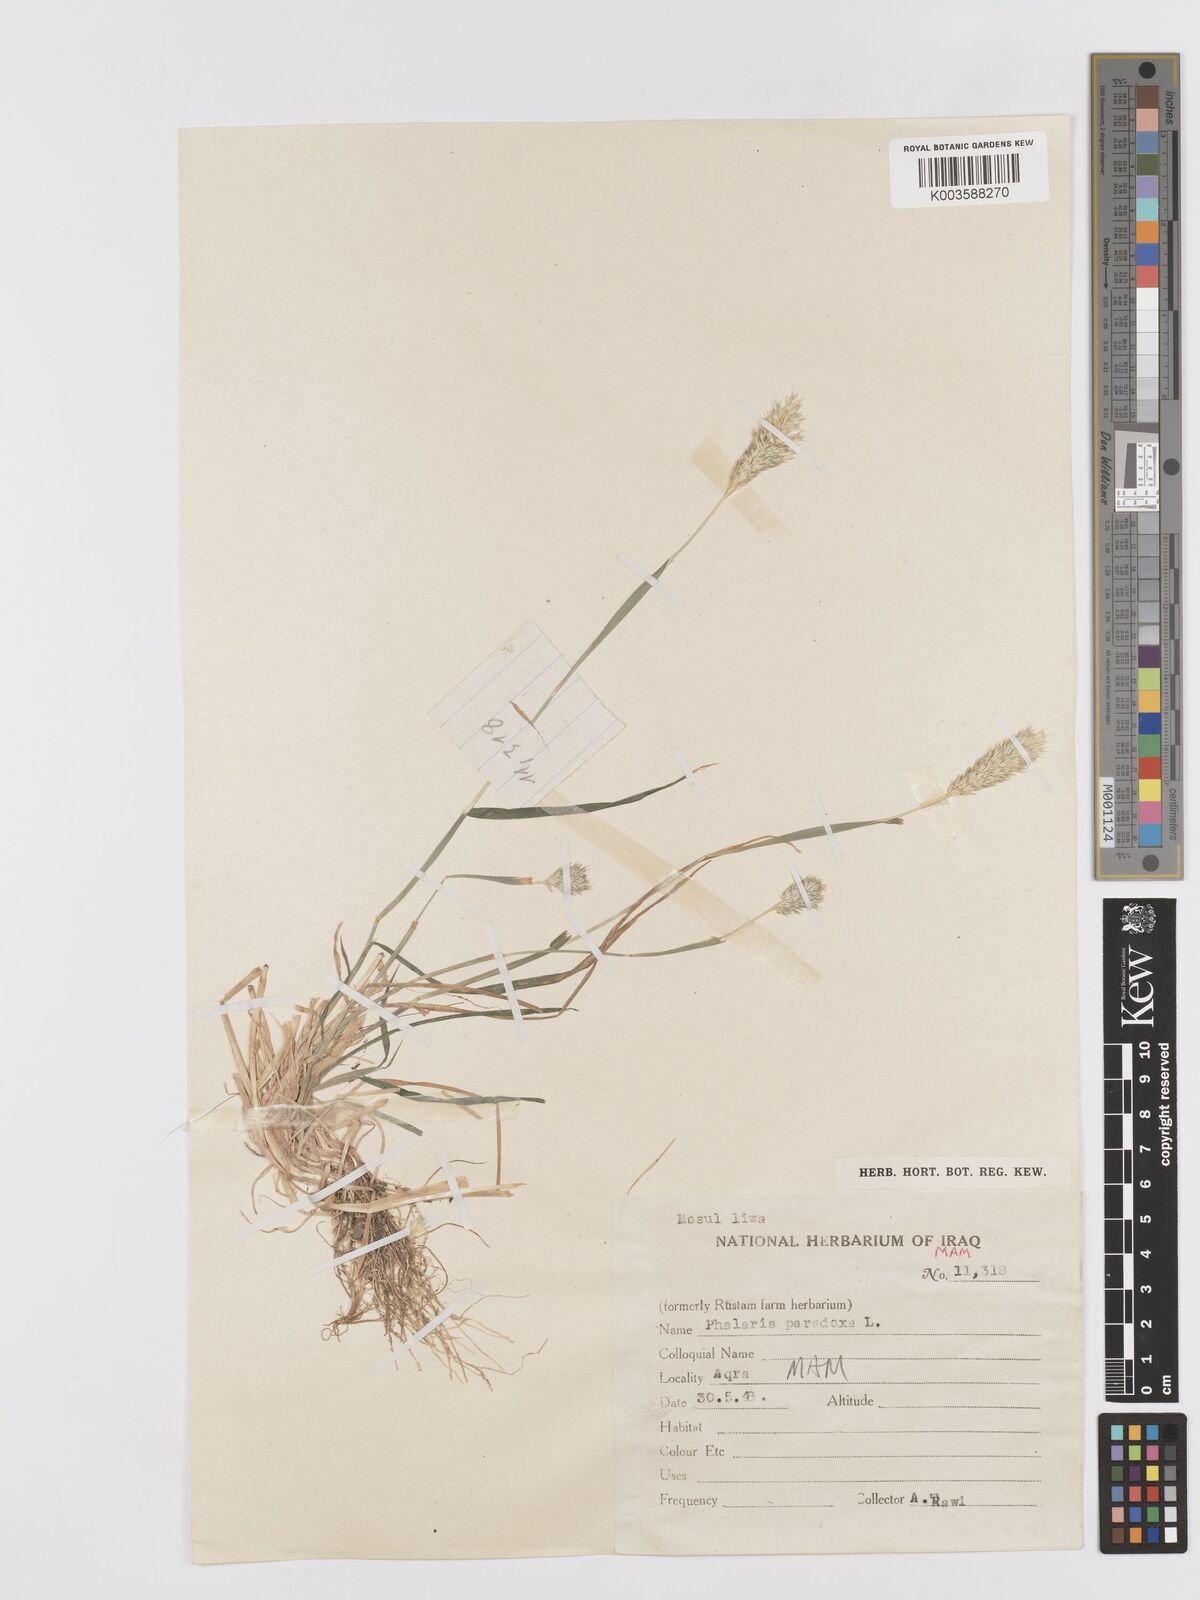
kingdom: Plantae
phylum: Tracheophyta
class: Liliopsida
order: Poales
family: Poaceae
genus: Phalaris
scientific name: Phalaris paradoxa
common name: Awned canary-grass
